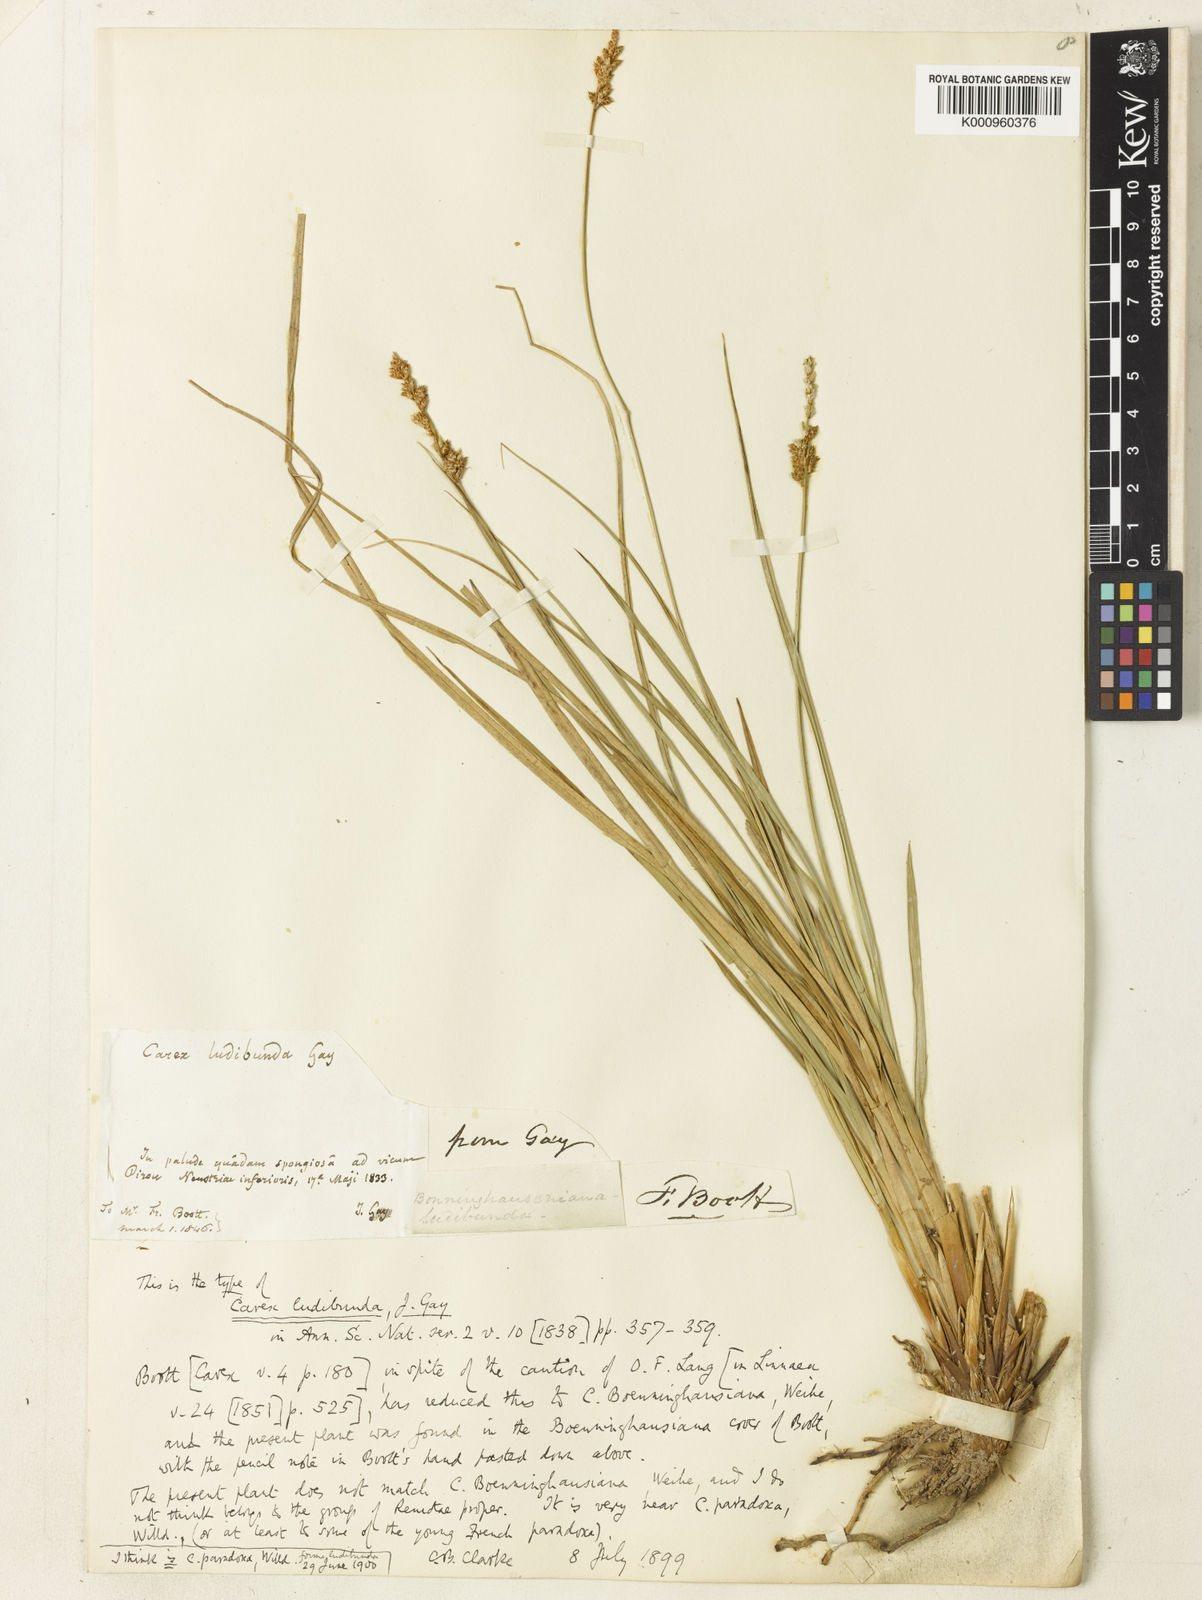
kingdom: Plantae
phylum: Tracheophyta
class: Liliopsida
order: Poales
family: Cyperaceae
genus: Carex
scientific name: Carex paniculata
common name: Greater tussock-sedge
